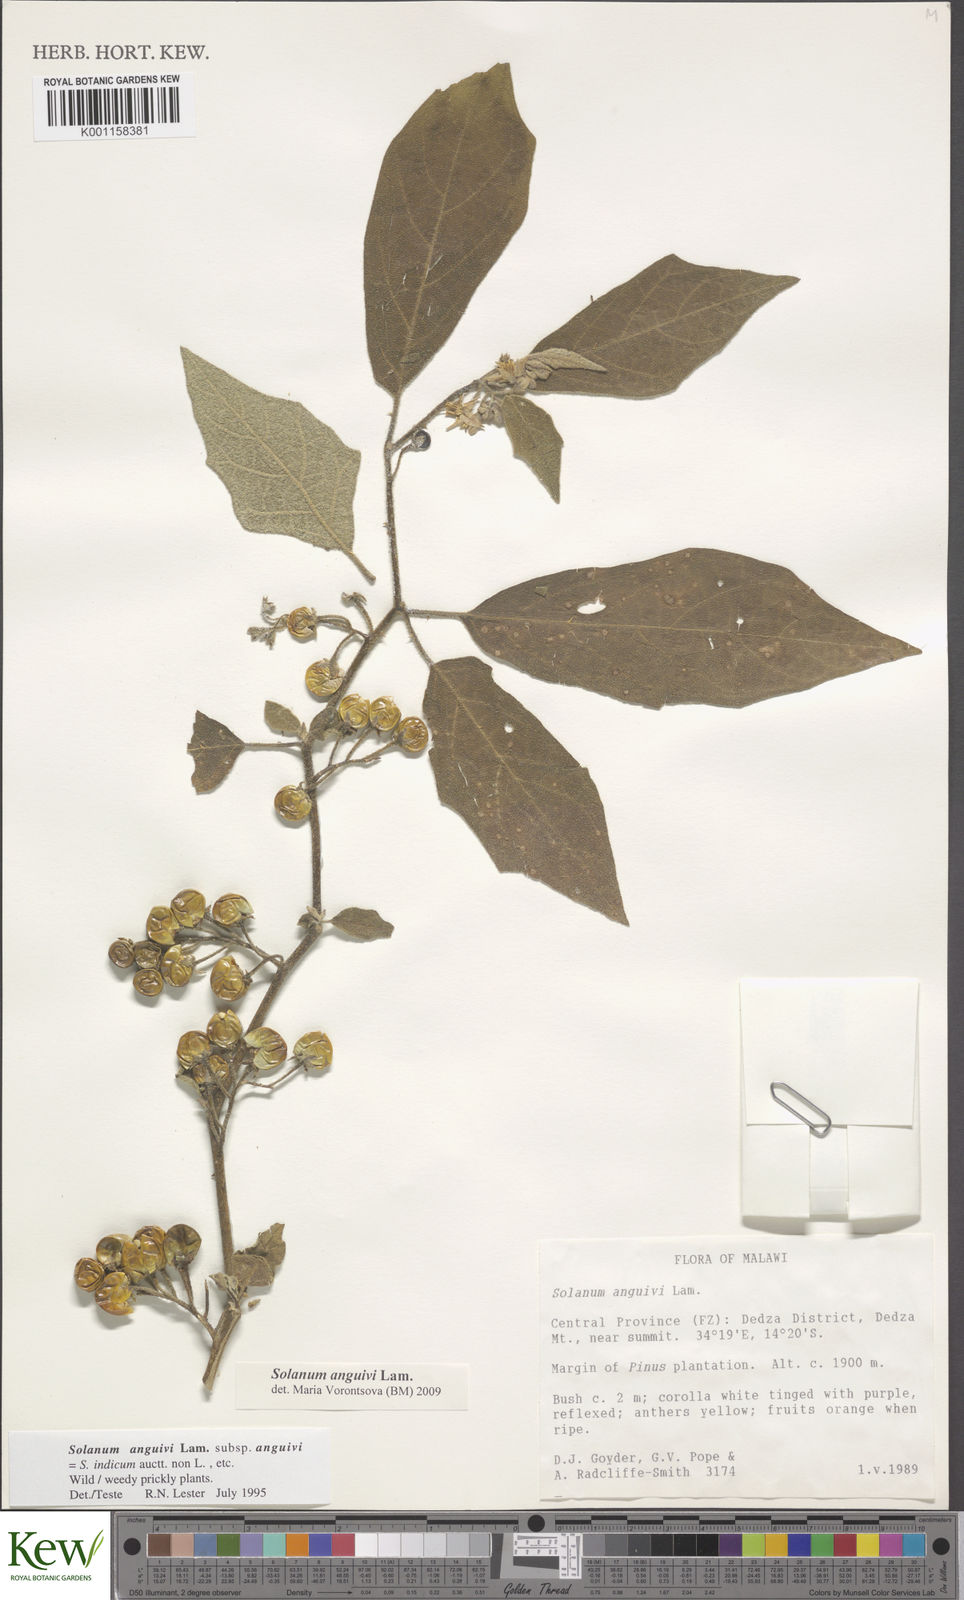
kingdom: Plantae
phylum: Tracheophyta
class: Magnoliopsida
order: Solanales
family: Solanaceae
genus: Solanum
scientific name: Solanum anguivi
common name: Forest bitterberry
